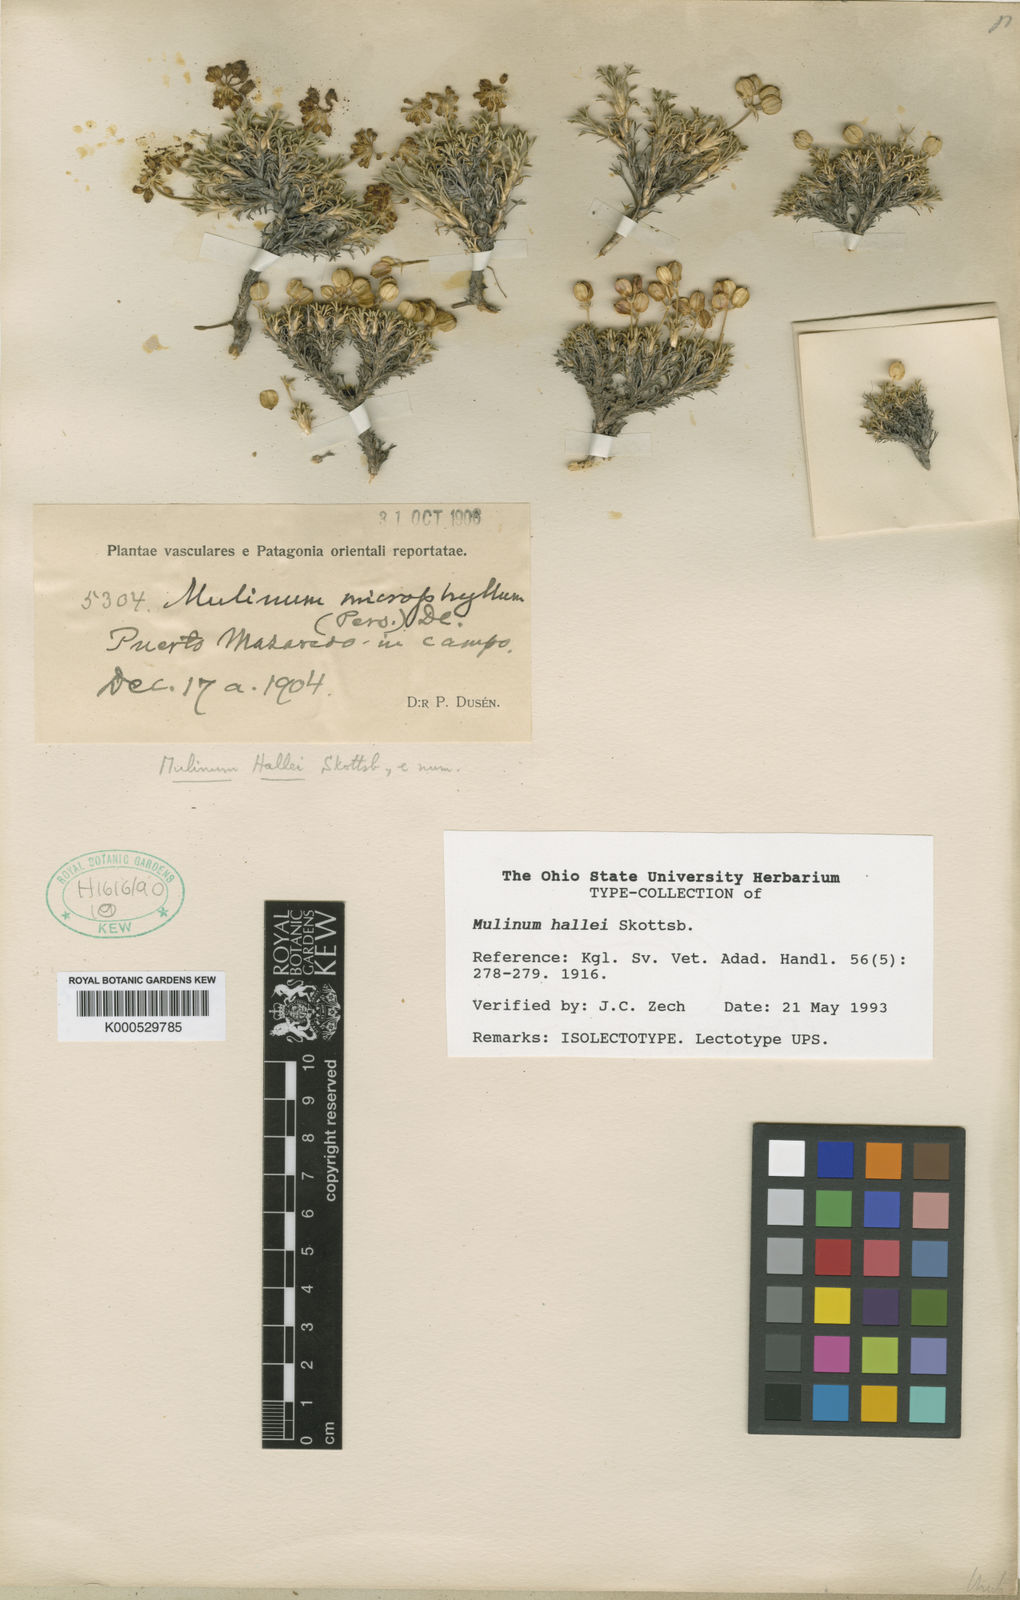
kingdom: Plantae
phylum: Tracheophyta
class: Magnoliopsida
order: Apiales
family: Apiaceae
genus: Azorella
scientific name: Azorella hallei
